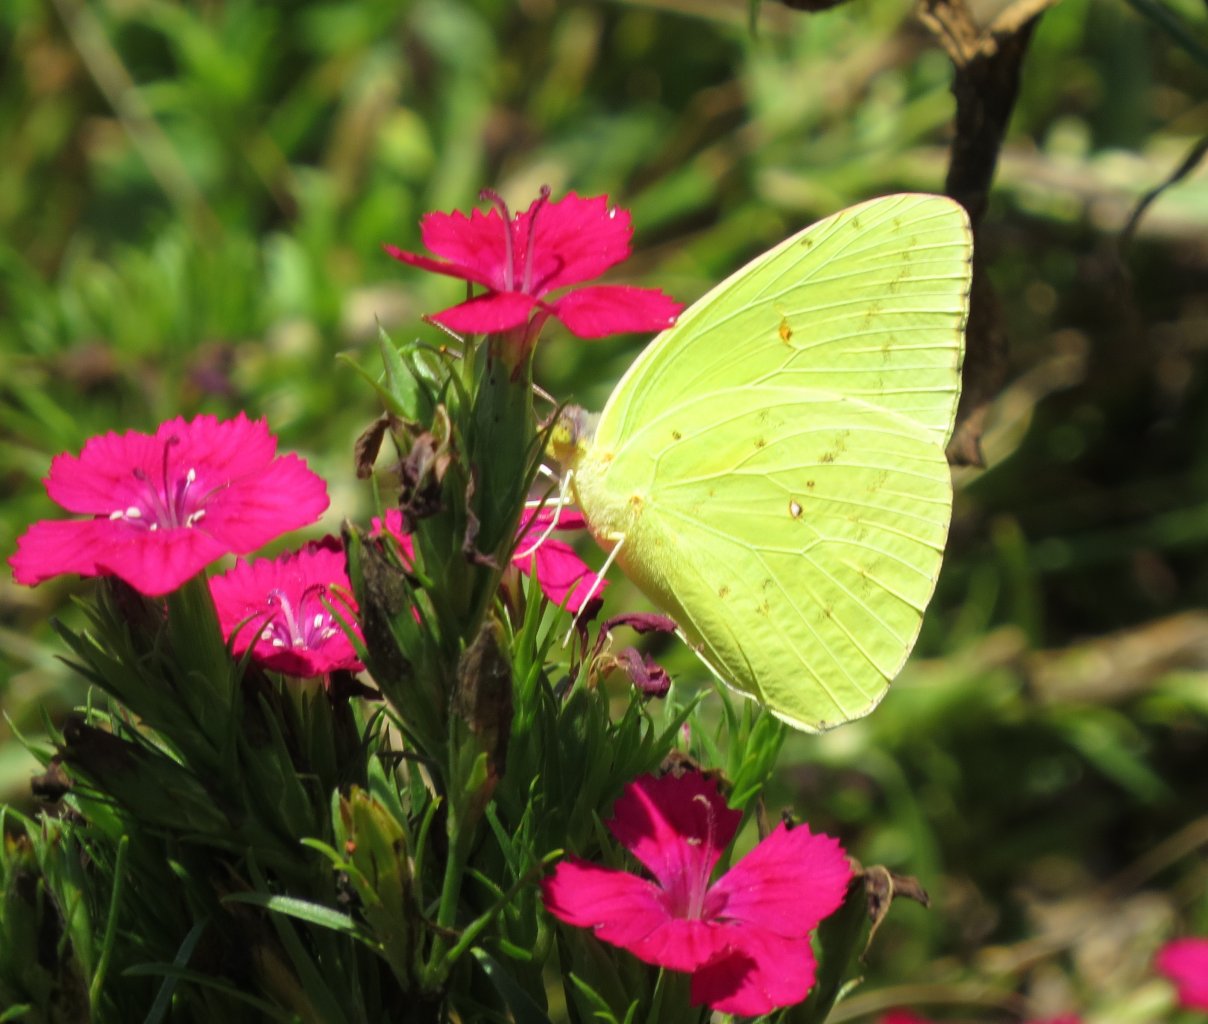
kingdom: Animalia
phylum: Arthropoda
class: Insecta
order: Lepidoptera
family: Pieridae
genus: Phoebis
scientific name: Phoebis sennae
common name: Cloudless Sulphur
